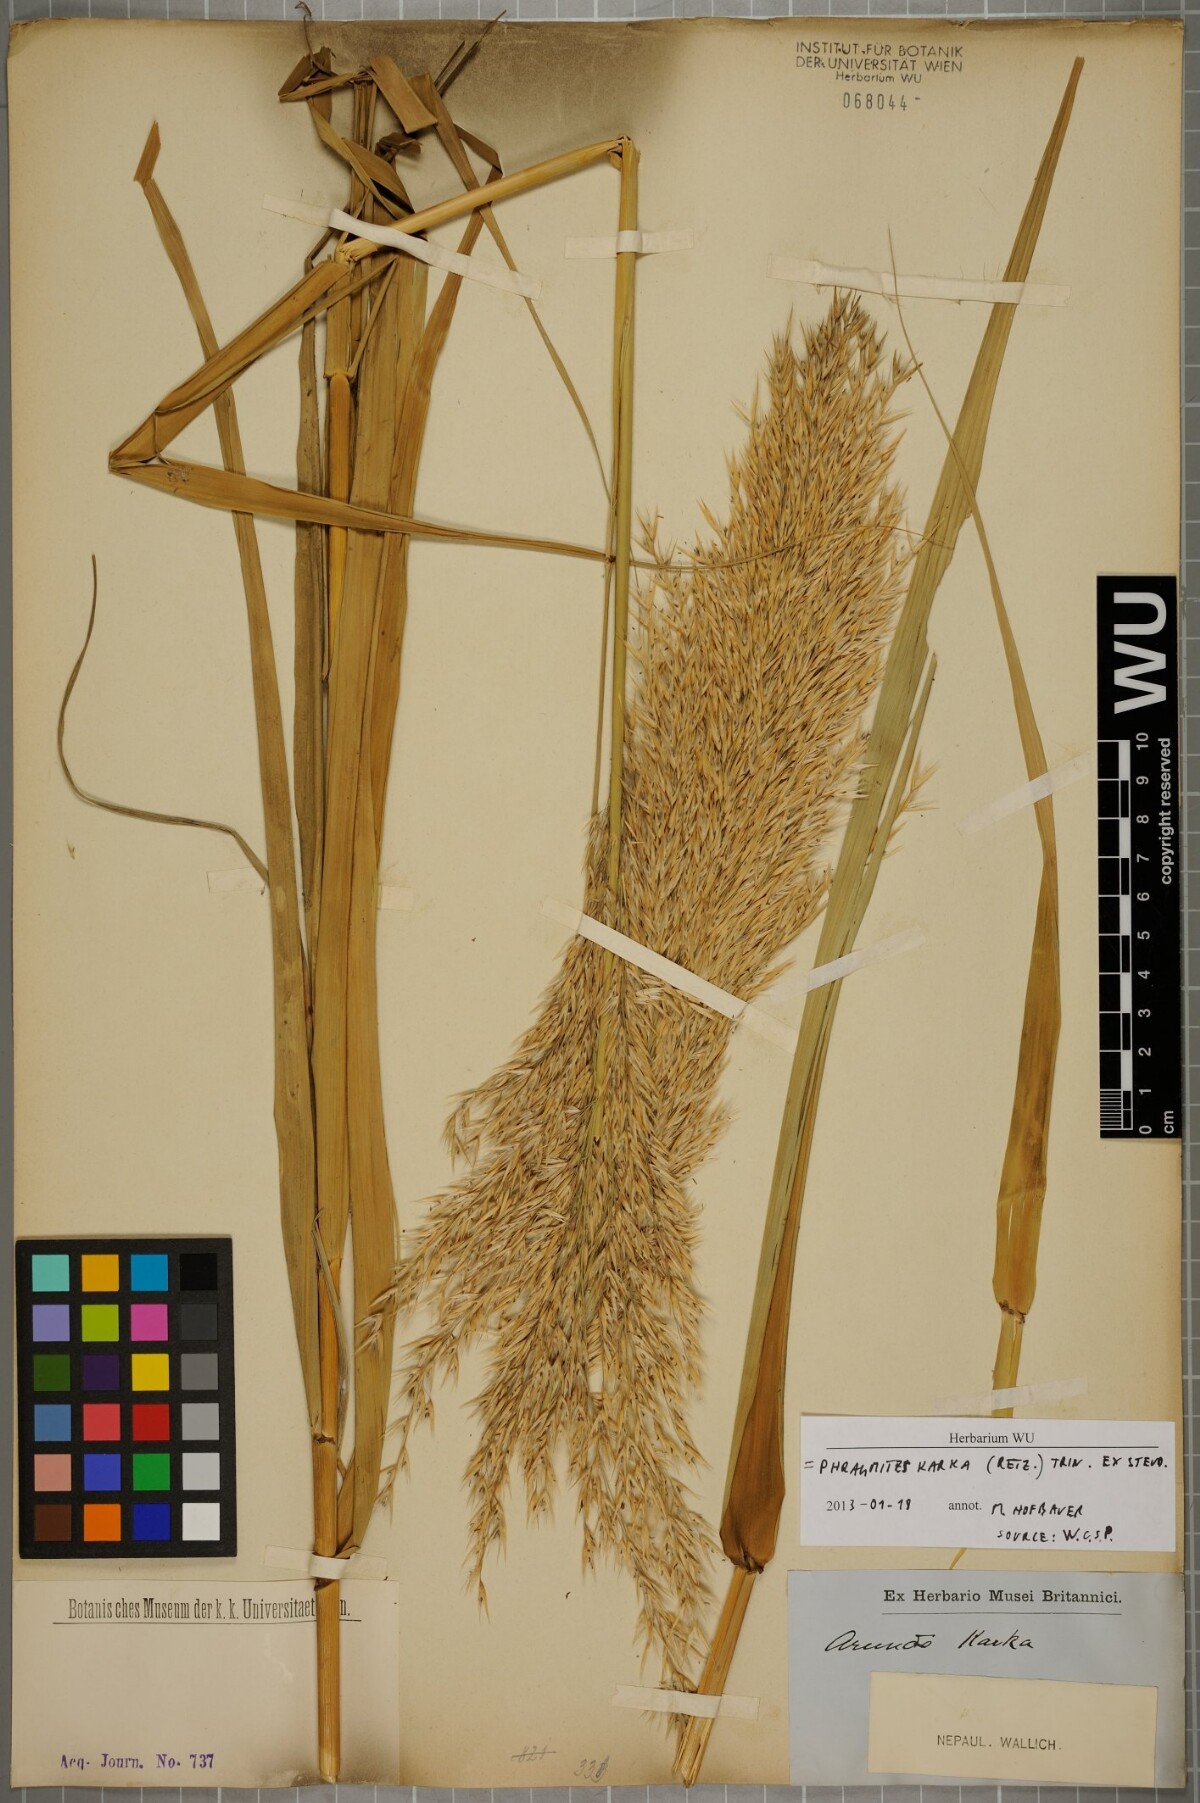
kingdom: Plantae
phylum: Tracheophyta
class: Liliopsida
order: Poales
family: Poaceae
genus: Phragmites
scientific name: Phragmites karka
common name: Tropical reed
